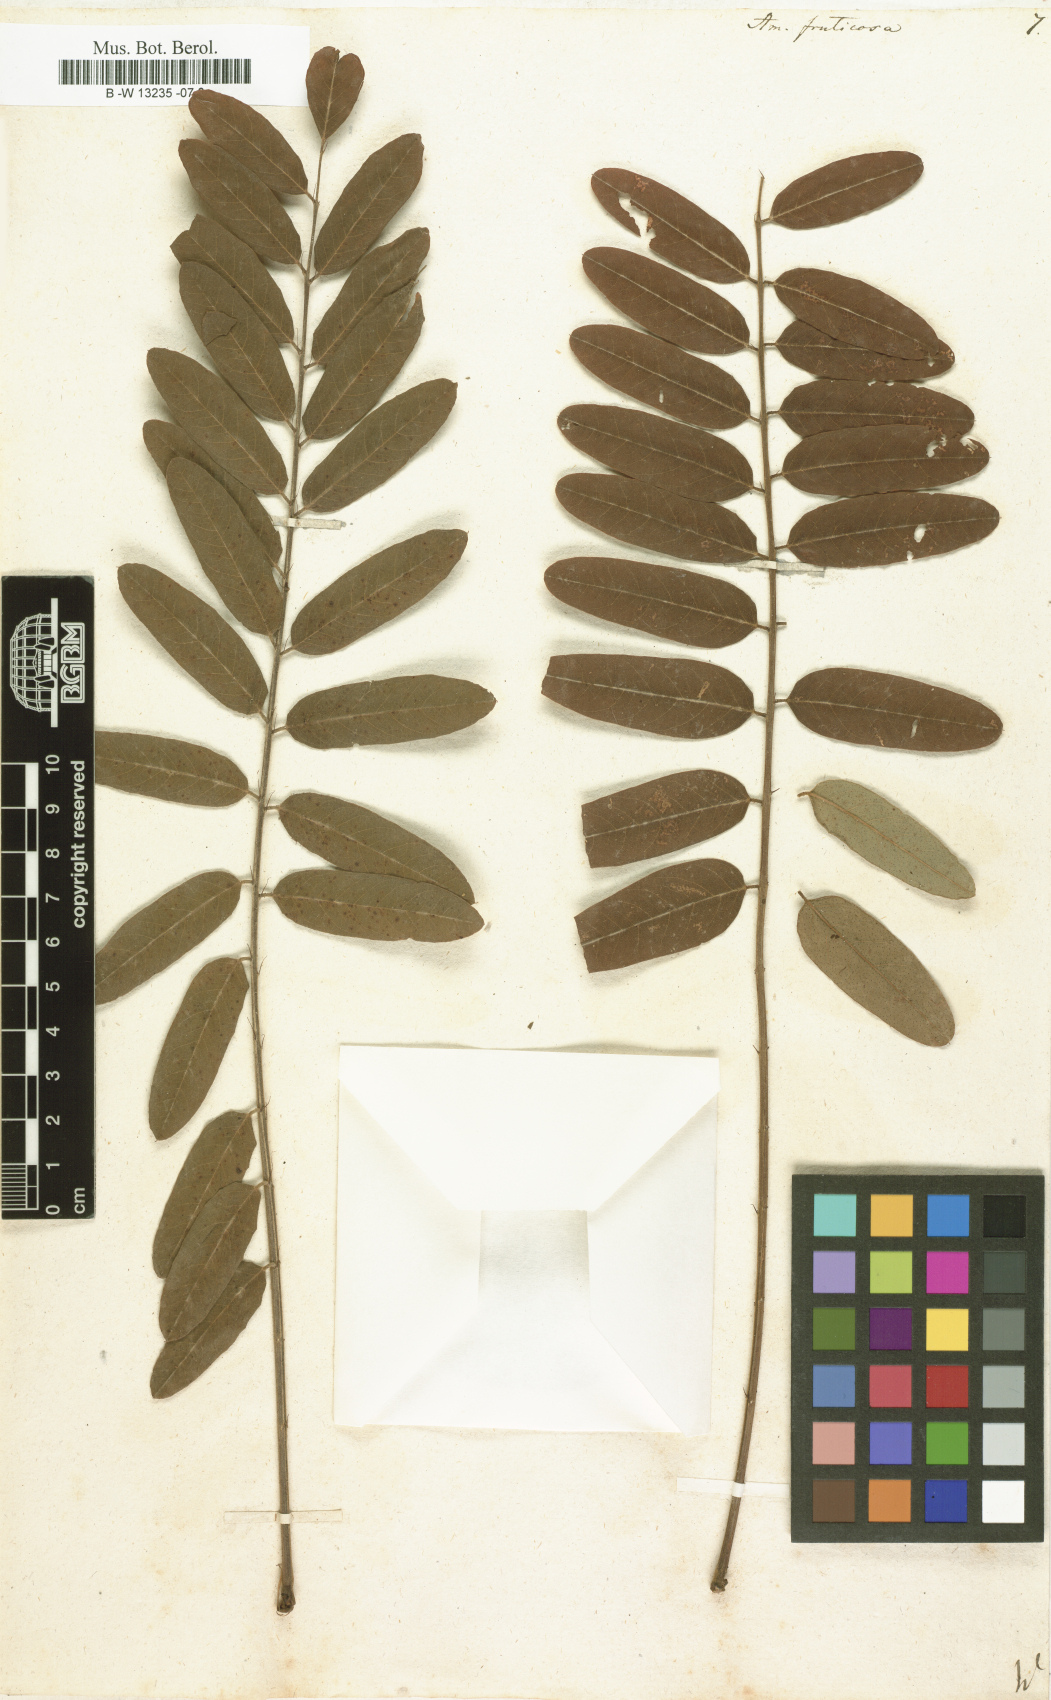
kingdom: Plantae
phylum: Tracheophyta
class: Magnoliopsida
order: Fabales
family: Fabaceae
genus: Amorpha
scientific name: Amorpha fruticosa
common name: False indigo
